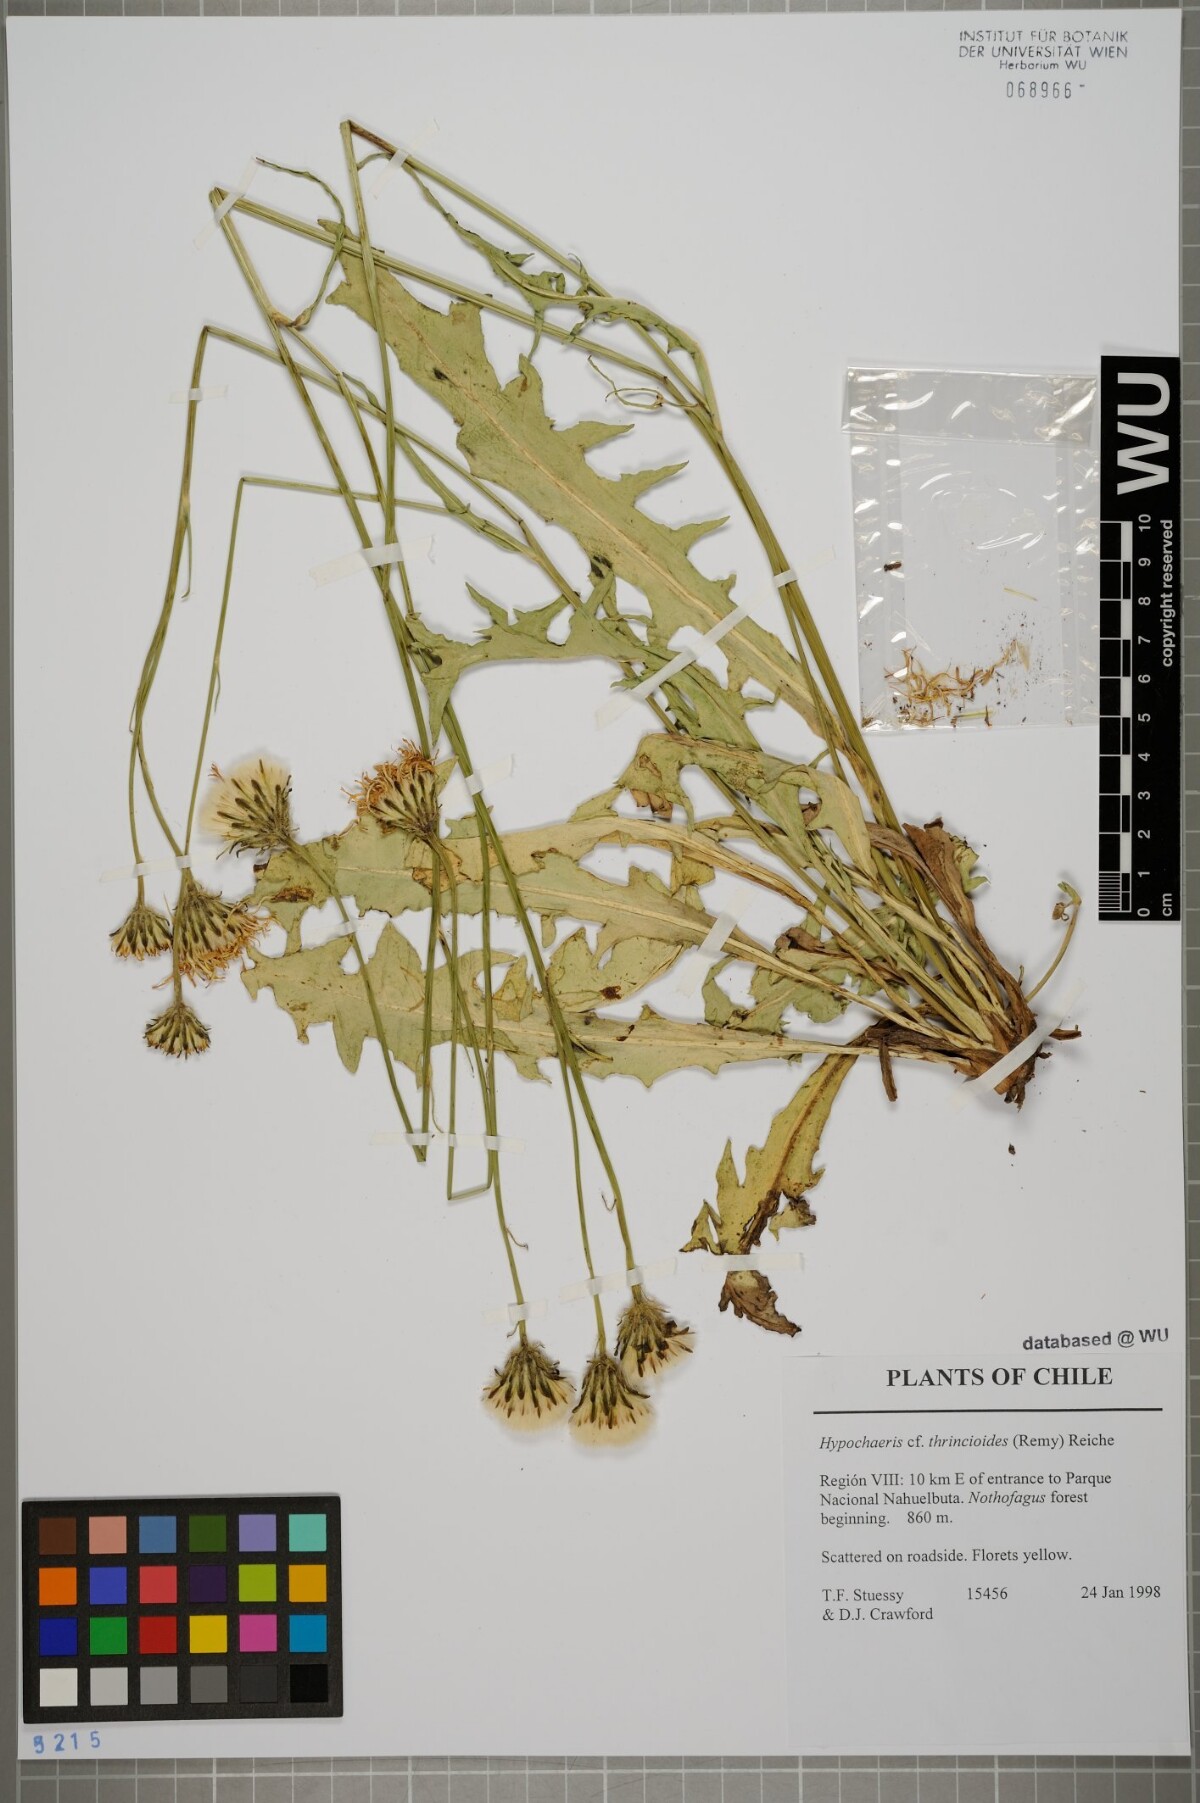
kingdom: Plantae
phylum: Tracheophyta
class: Magnoliopsida
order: Asterales
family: Asteraceae
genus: Hypochaeris
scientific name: Hypochaeris apargioides
